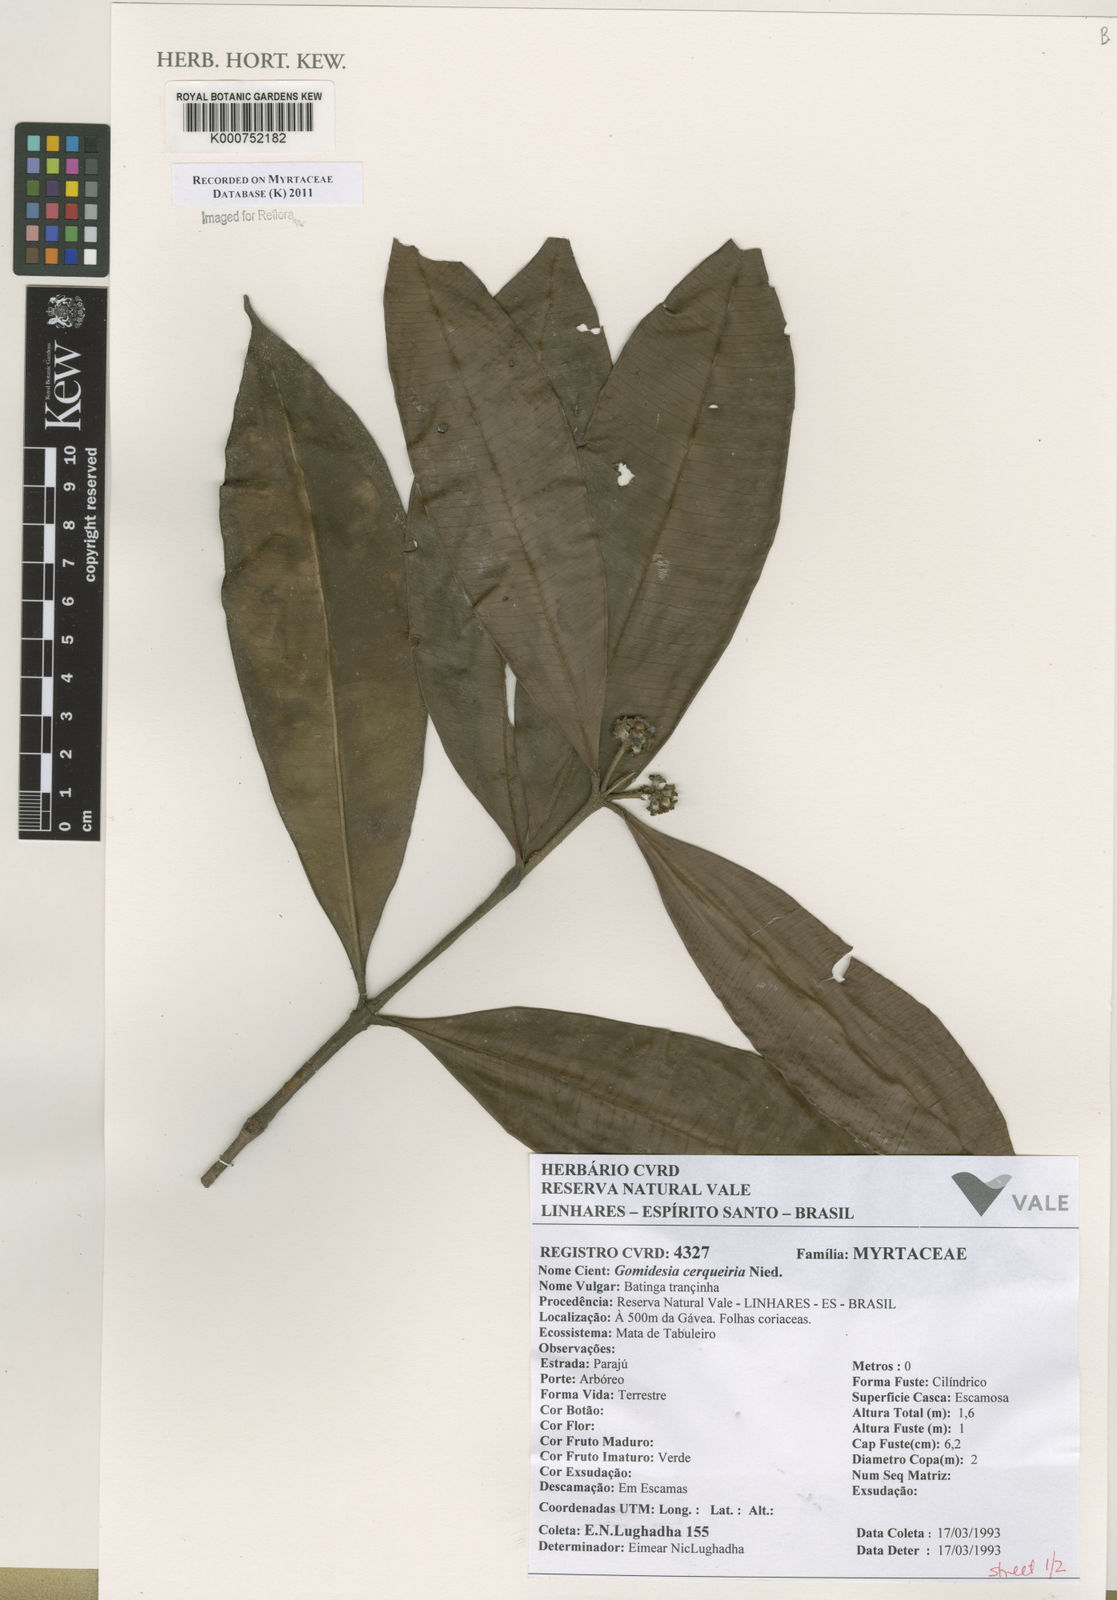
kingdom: Plantae
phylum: Tracheophyta
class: Magnoliopsida
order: Myrtales
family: Myrtaceae
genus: Myrcia
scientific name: Myrcia cerqueiria
